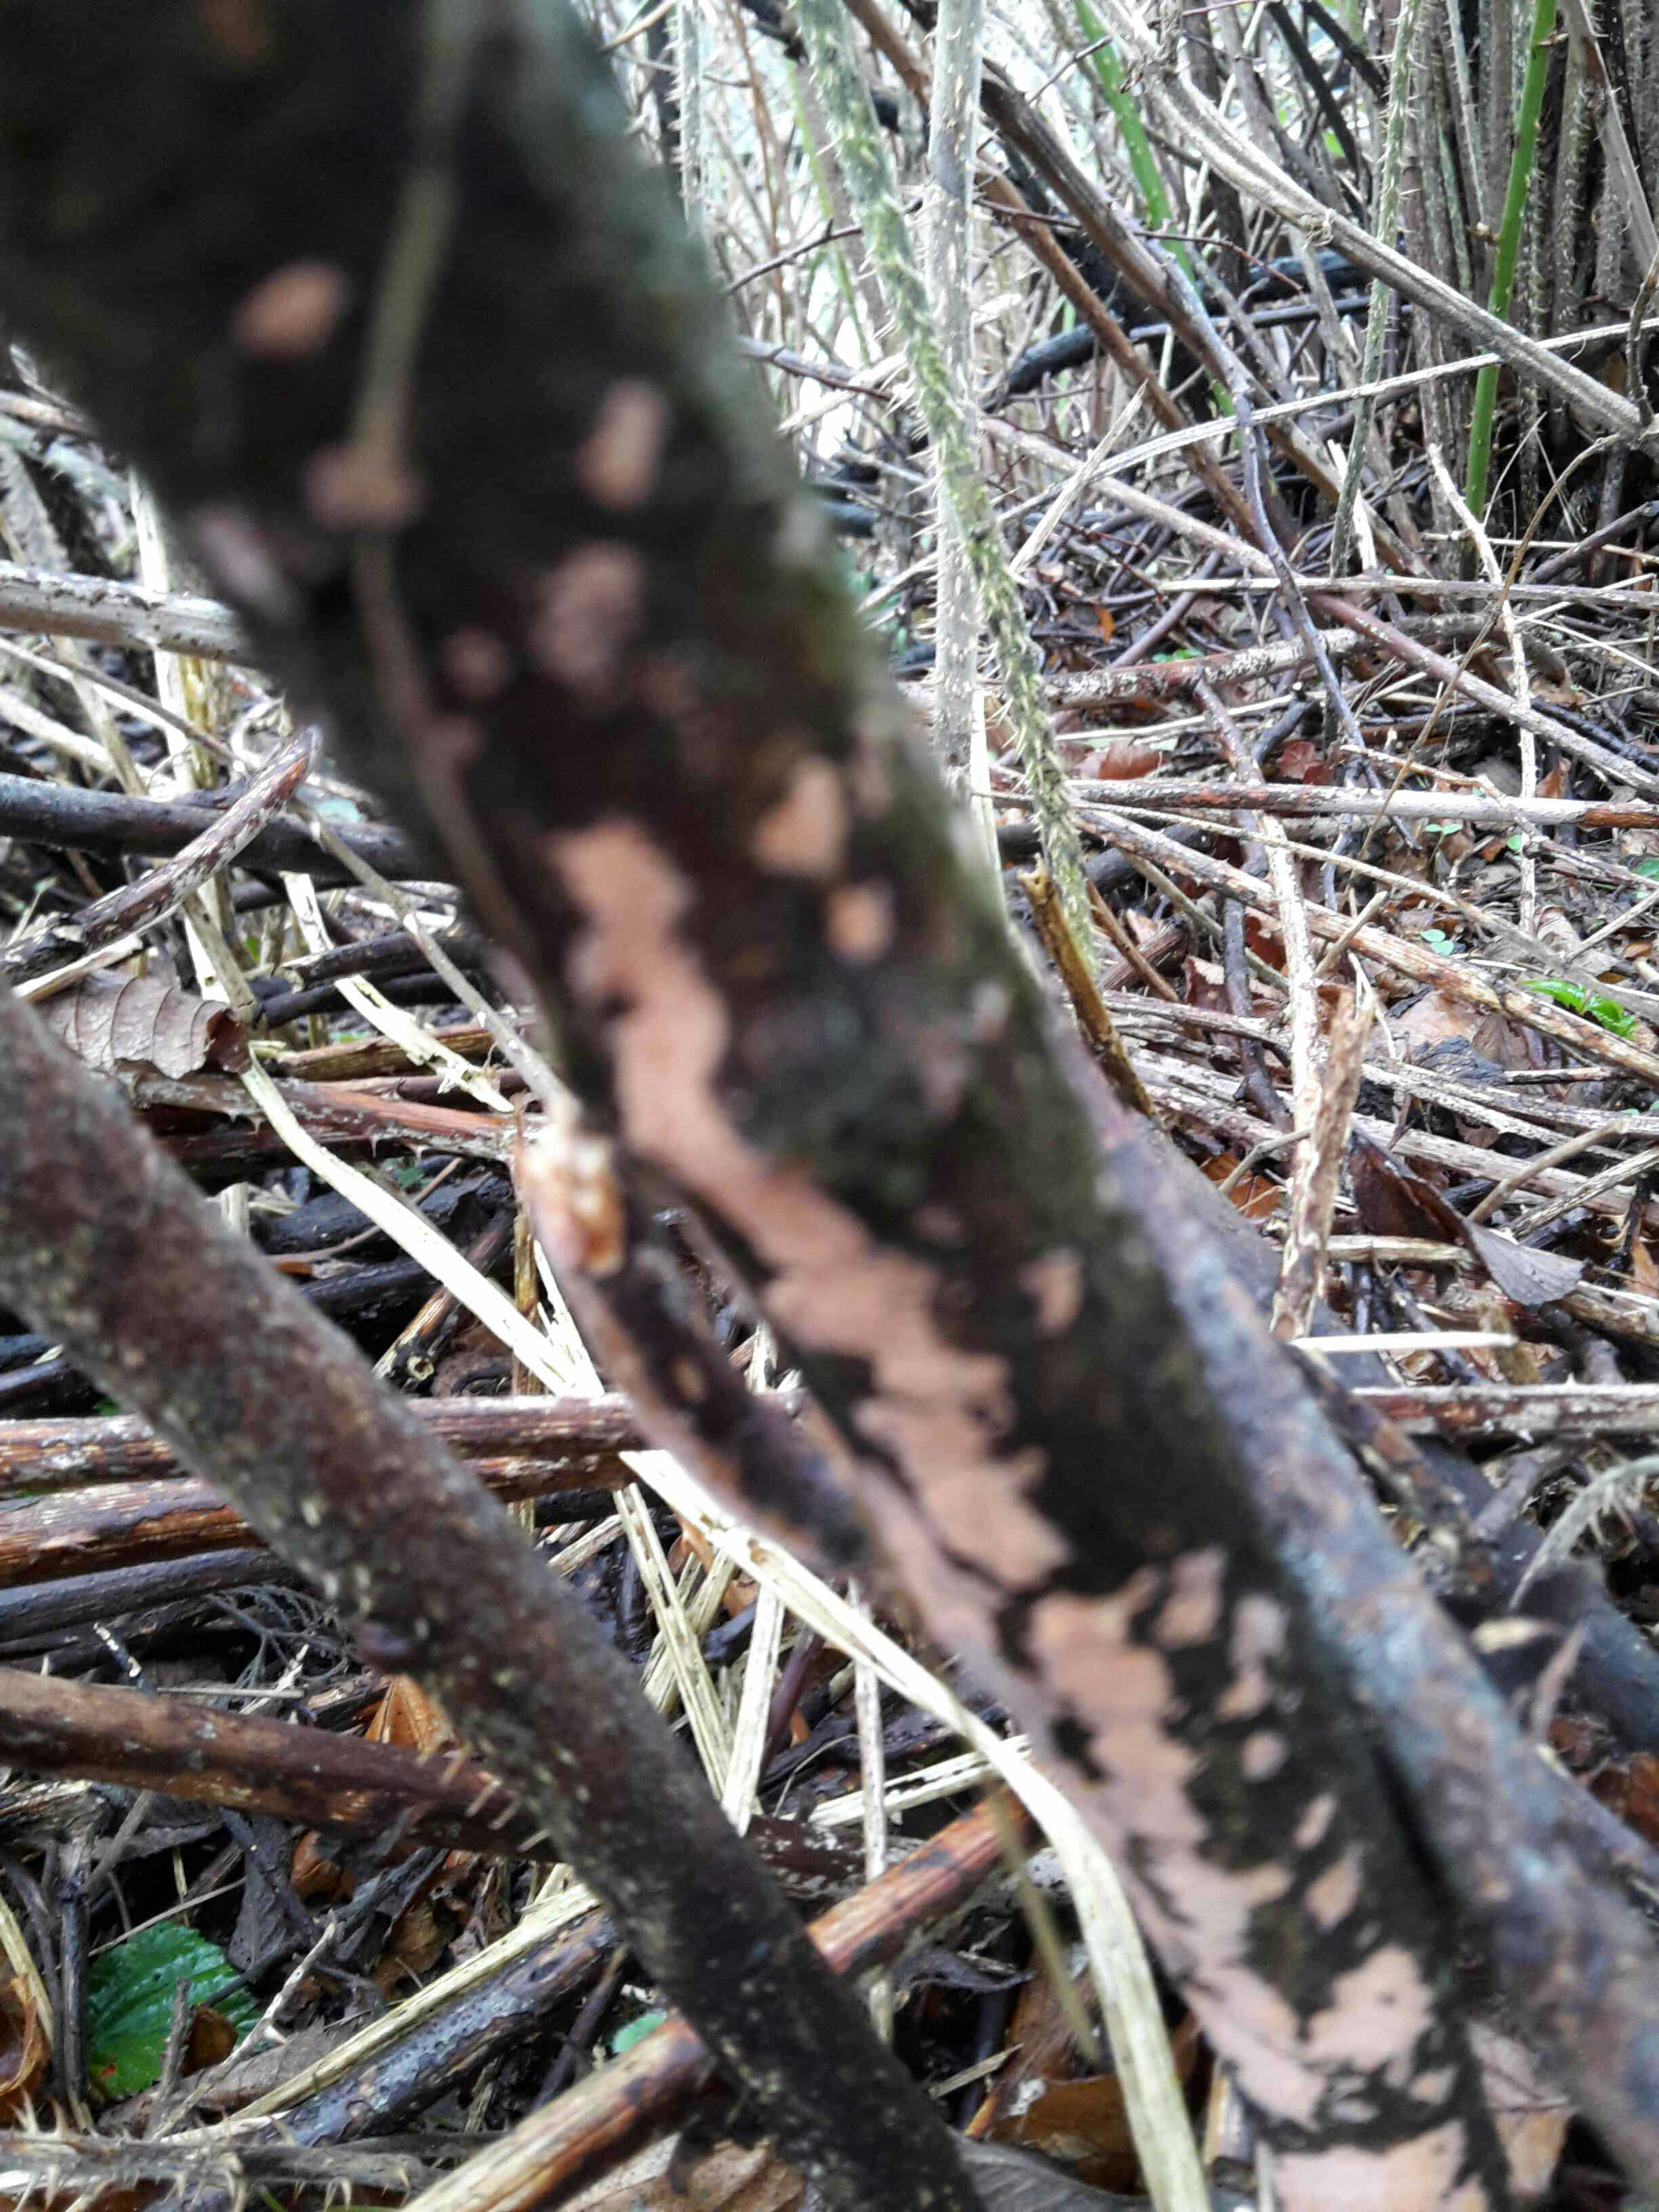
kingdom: Fungi
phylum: Basidiomycota
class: Agaricomycetes
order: Russulales
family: Peniophoraceae
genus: Peniophora
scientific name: Peniophora incarnata
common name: laksefarvet voksskind
